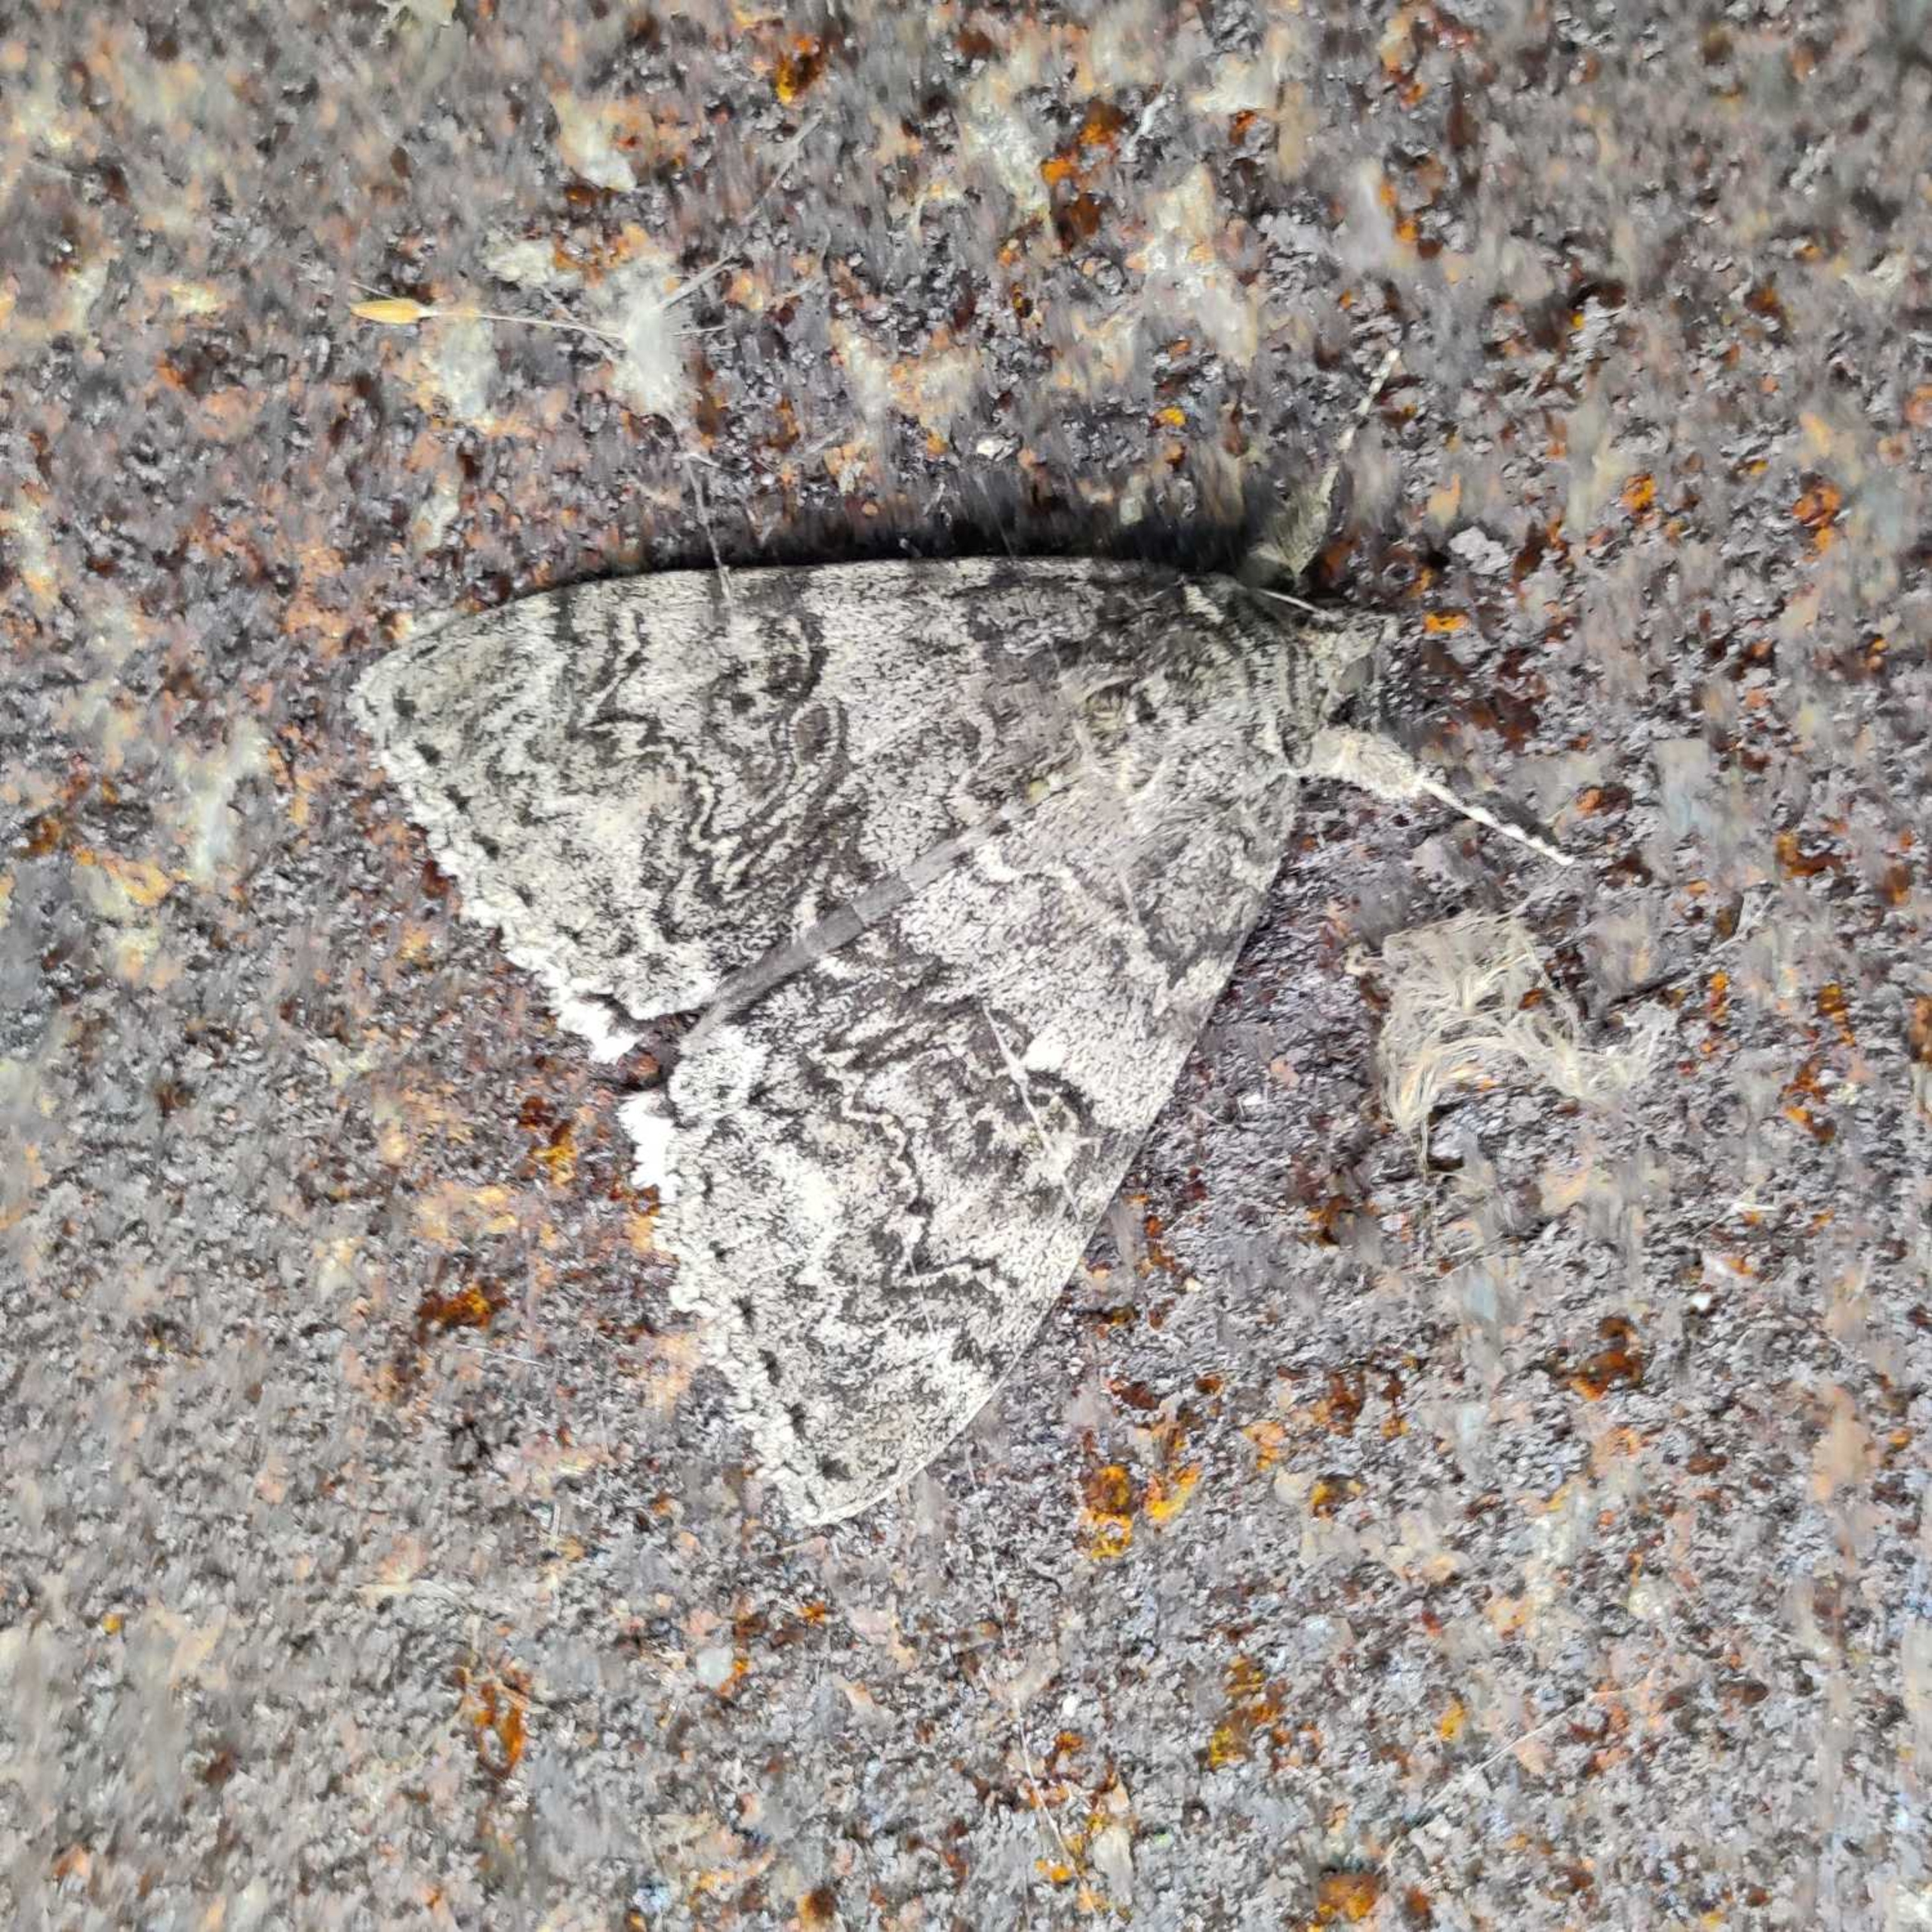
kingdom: Animalia
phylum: Arthropoda
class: Insecta
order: Lepidoptera
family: Erebidae
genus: Catocala
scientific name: Catocala nupta
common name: Rødt ordensbånd
